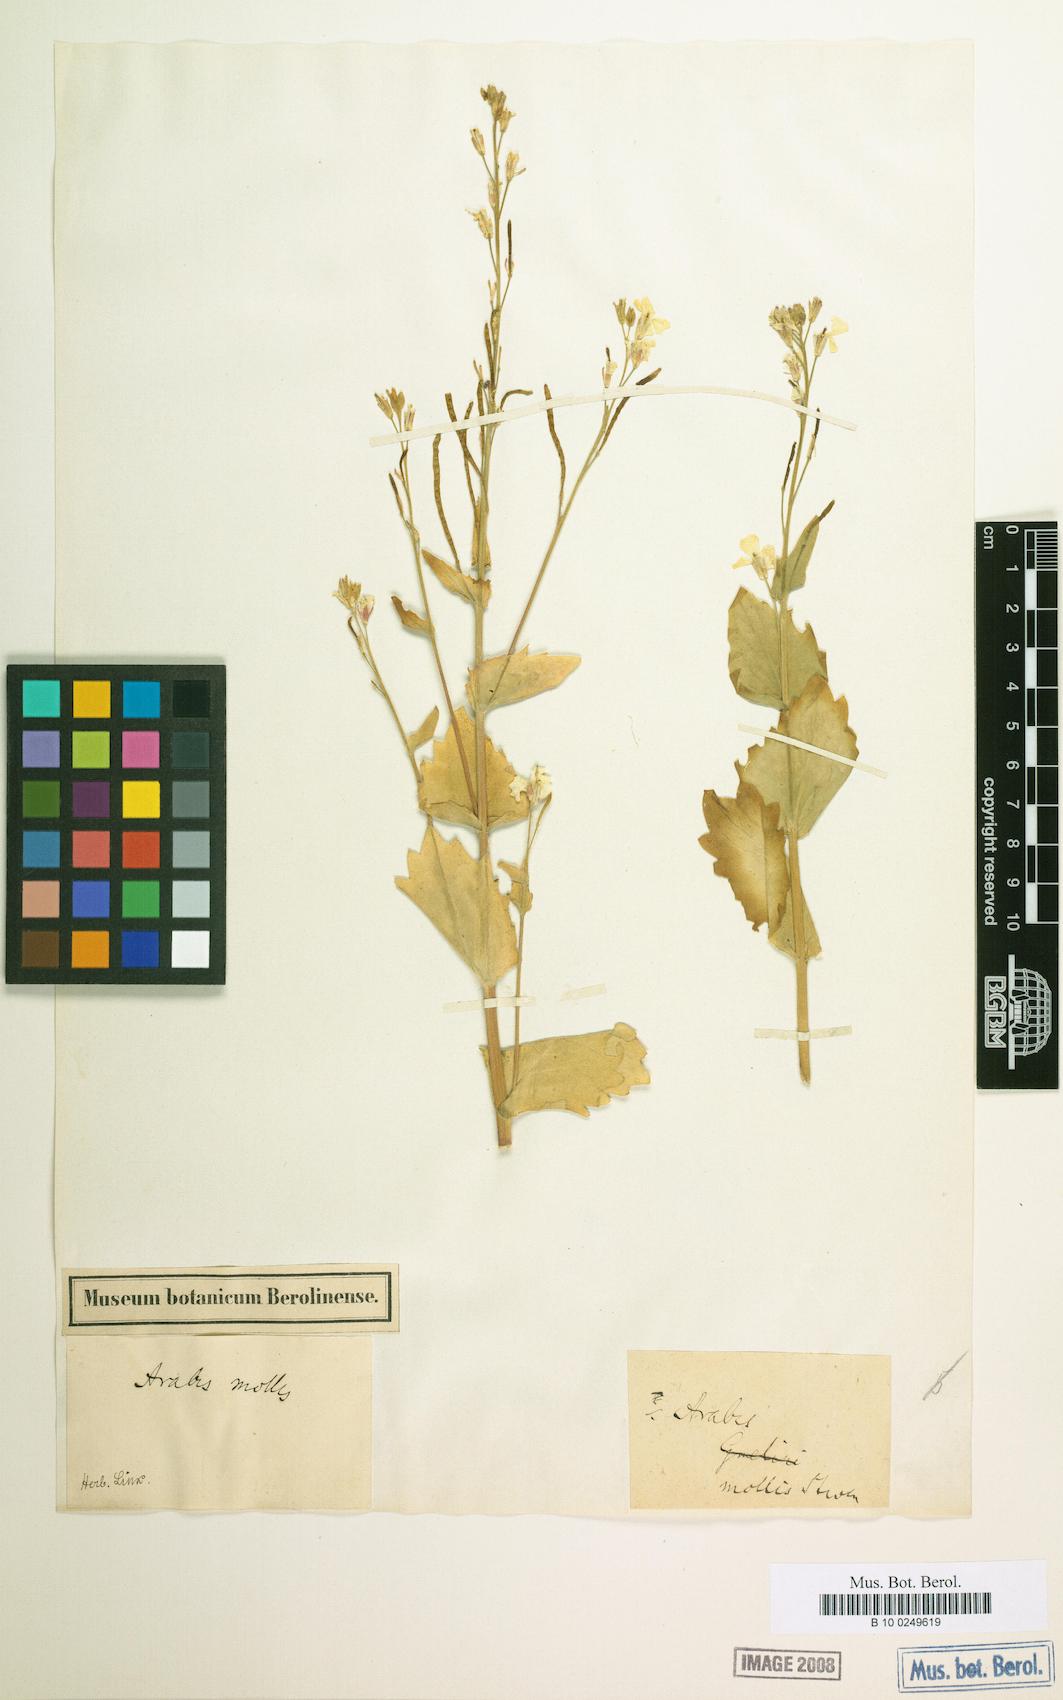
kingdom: Plantae
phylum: Tracheophyta
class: Magnoliopsida
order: Brassicales
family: Brassicaceae
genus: Arabis
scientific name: Arabis christiani
